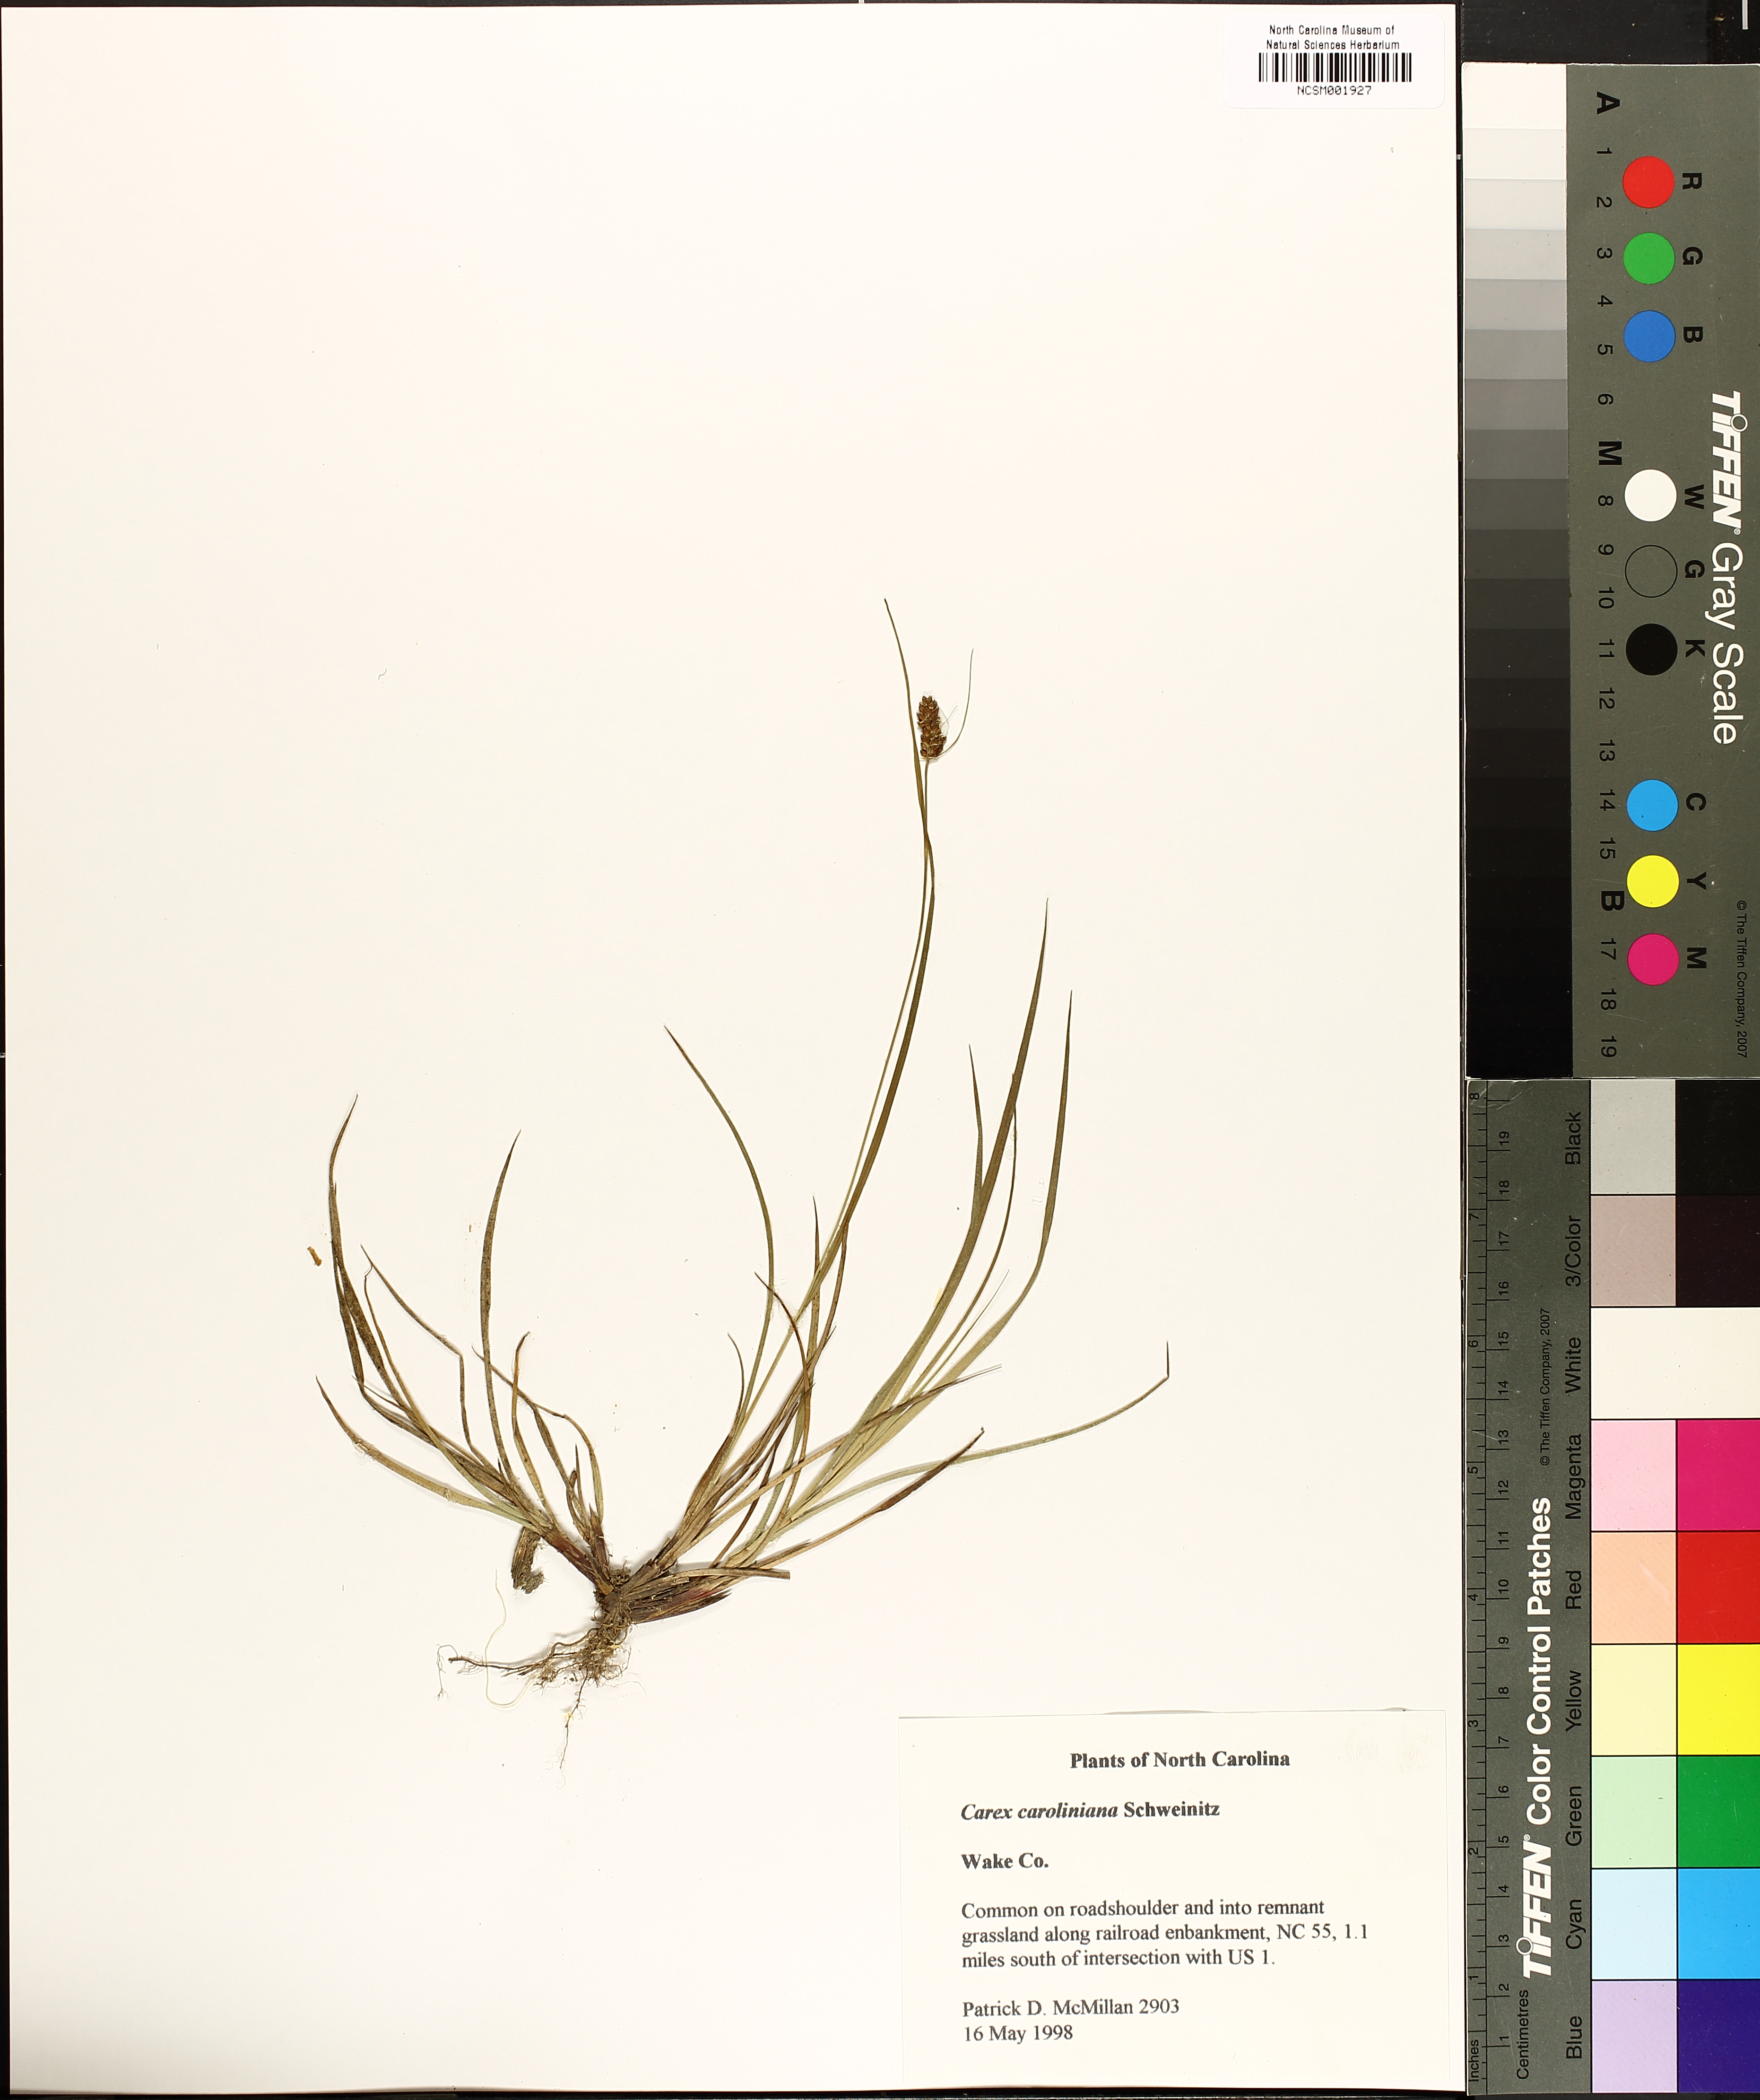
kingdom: Plantae
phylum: Tracheophyta
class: Liliopsida
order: Poales
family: Cyperaceae
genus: Carex
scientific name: Carex caroliniana
